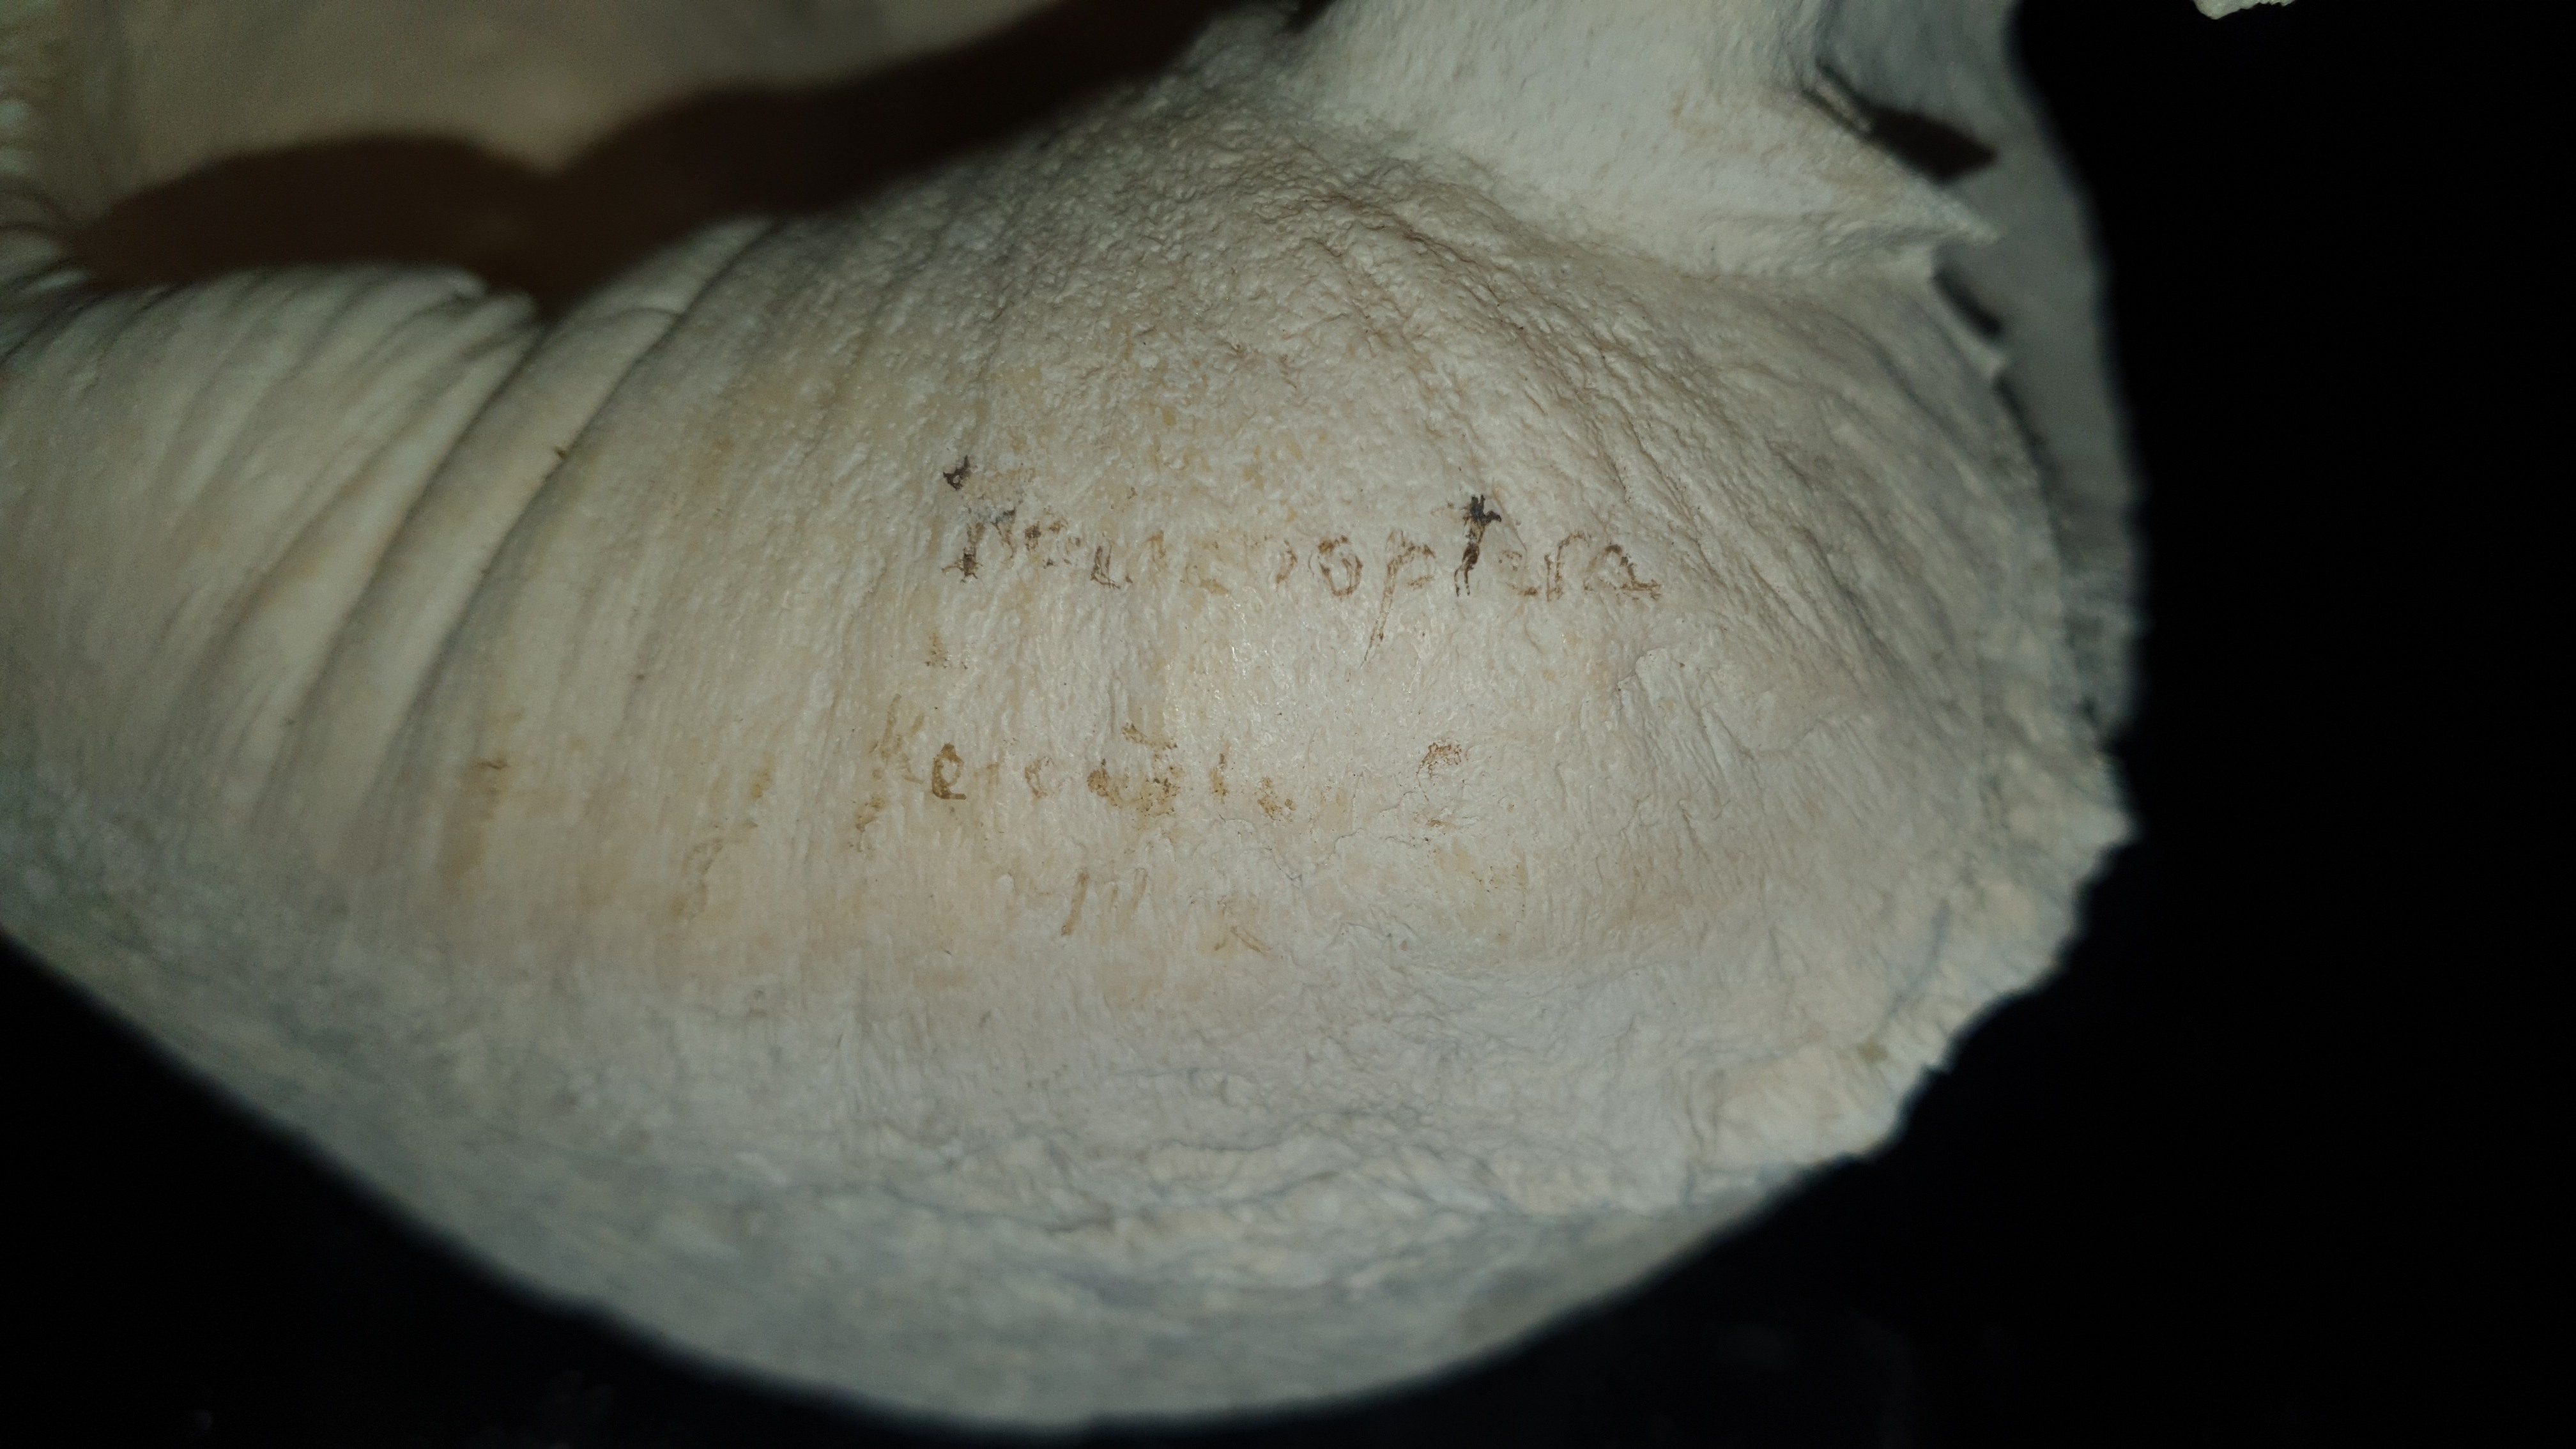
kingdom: Animalia
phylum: Chordata
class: Mammalia
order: Cetacea
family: Balaenopteridae
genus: Balaenoptera
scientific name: Balaenoptera
